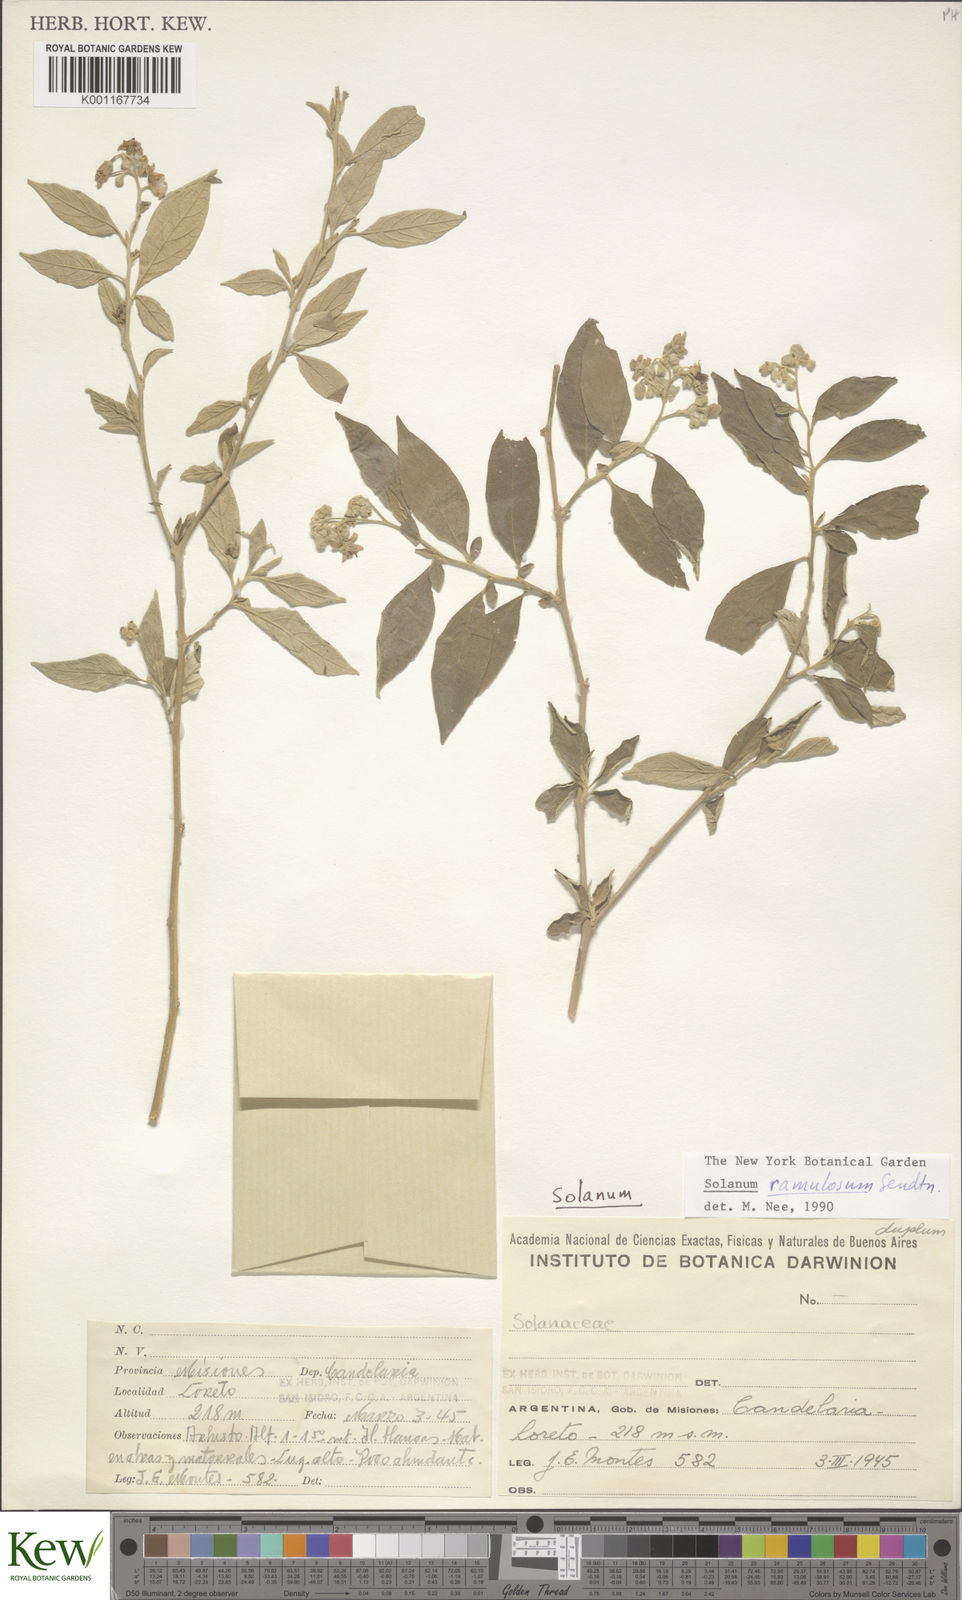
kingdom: Plantae
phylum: Tracheophyta
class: Magnoliopsida
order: Solanales
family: Solanaceae
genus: Solanum
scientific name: Solanum ramulosum
